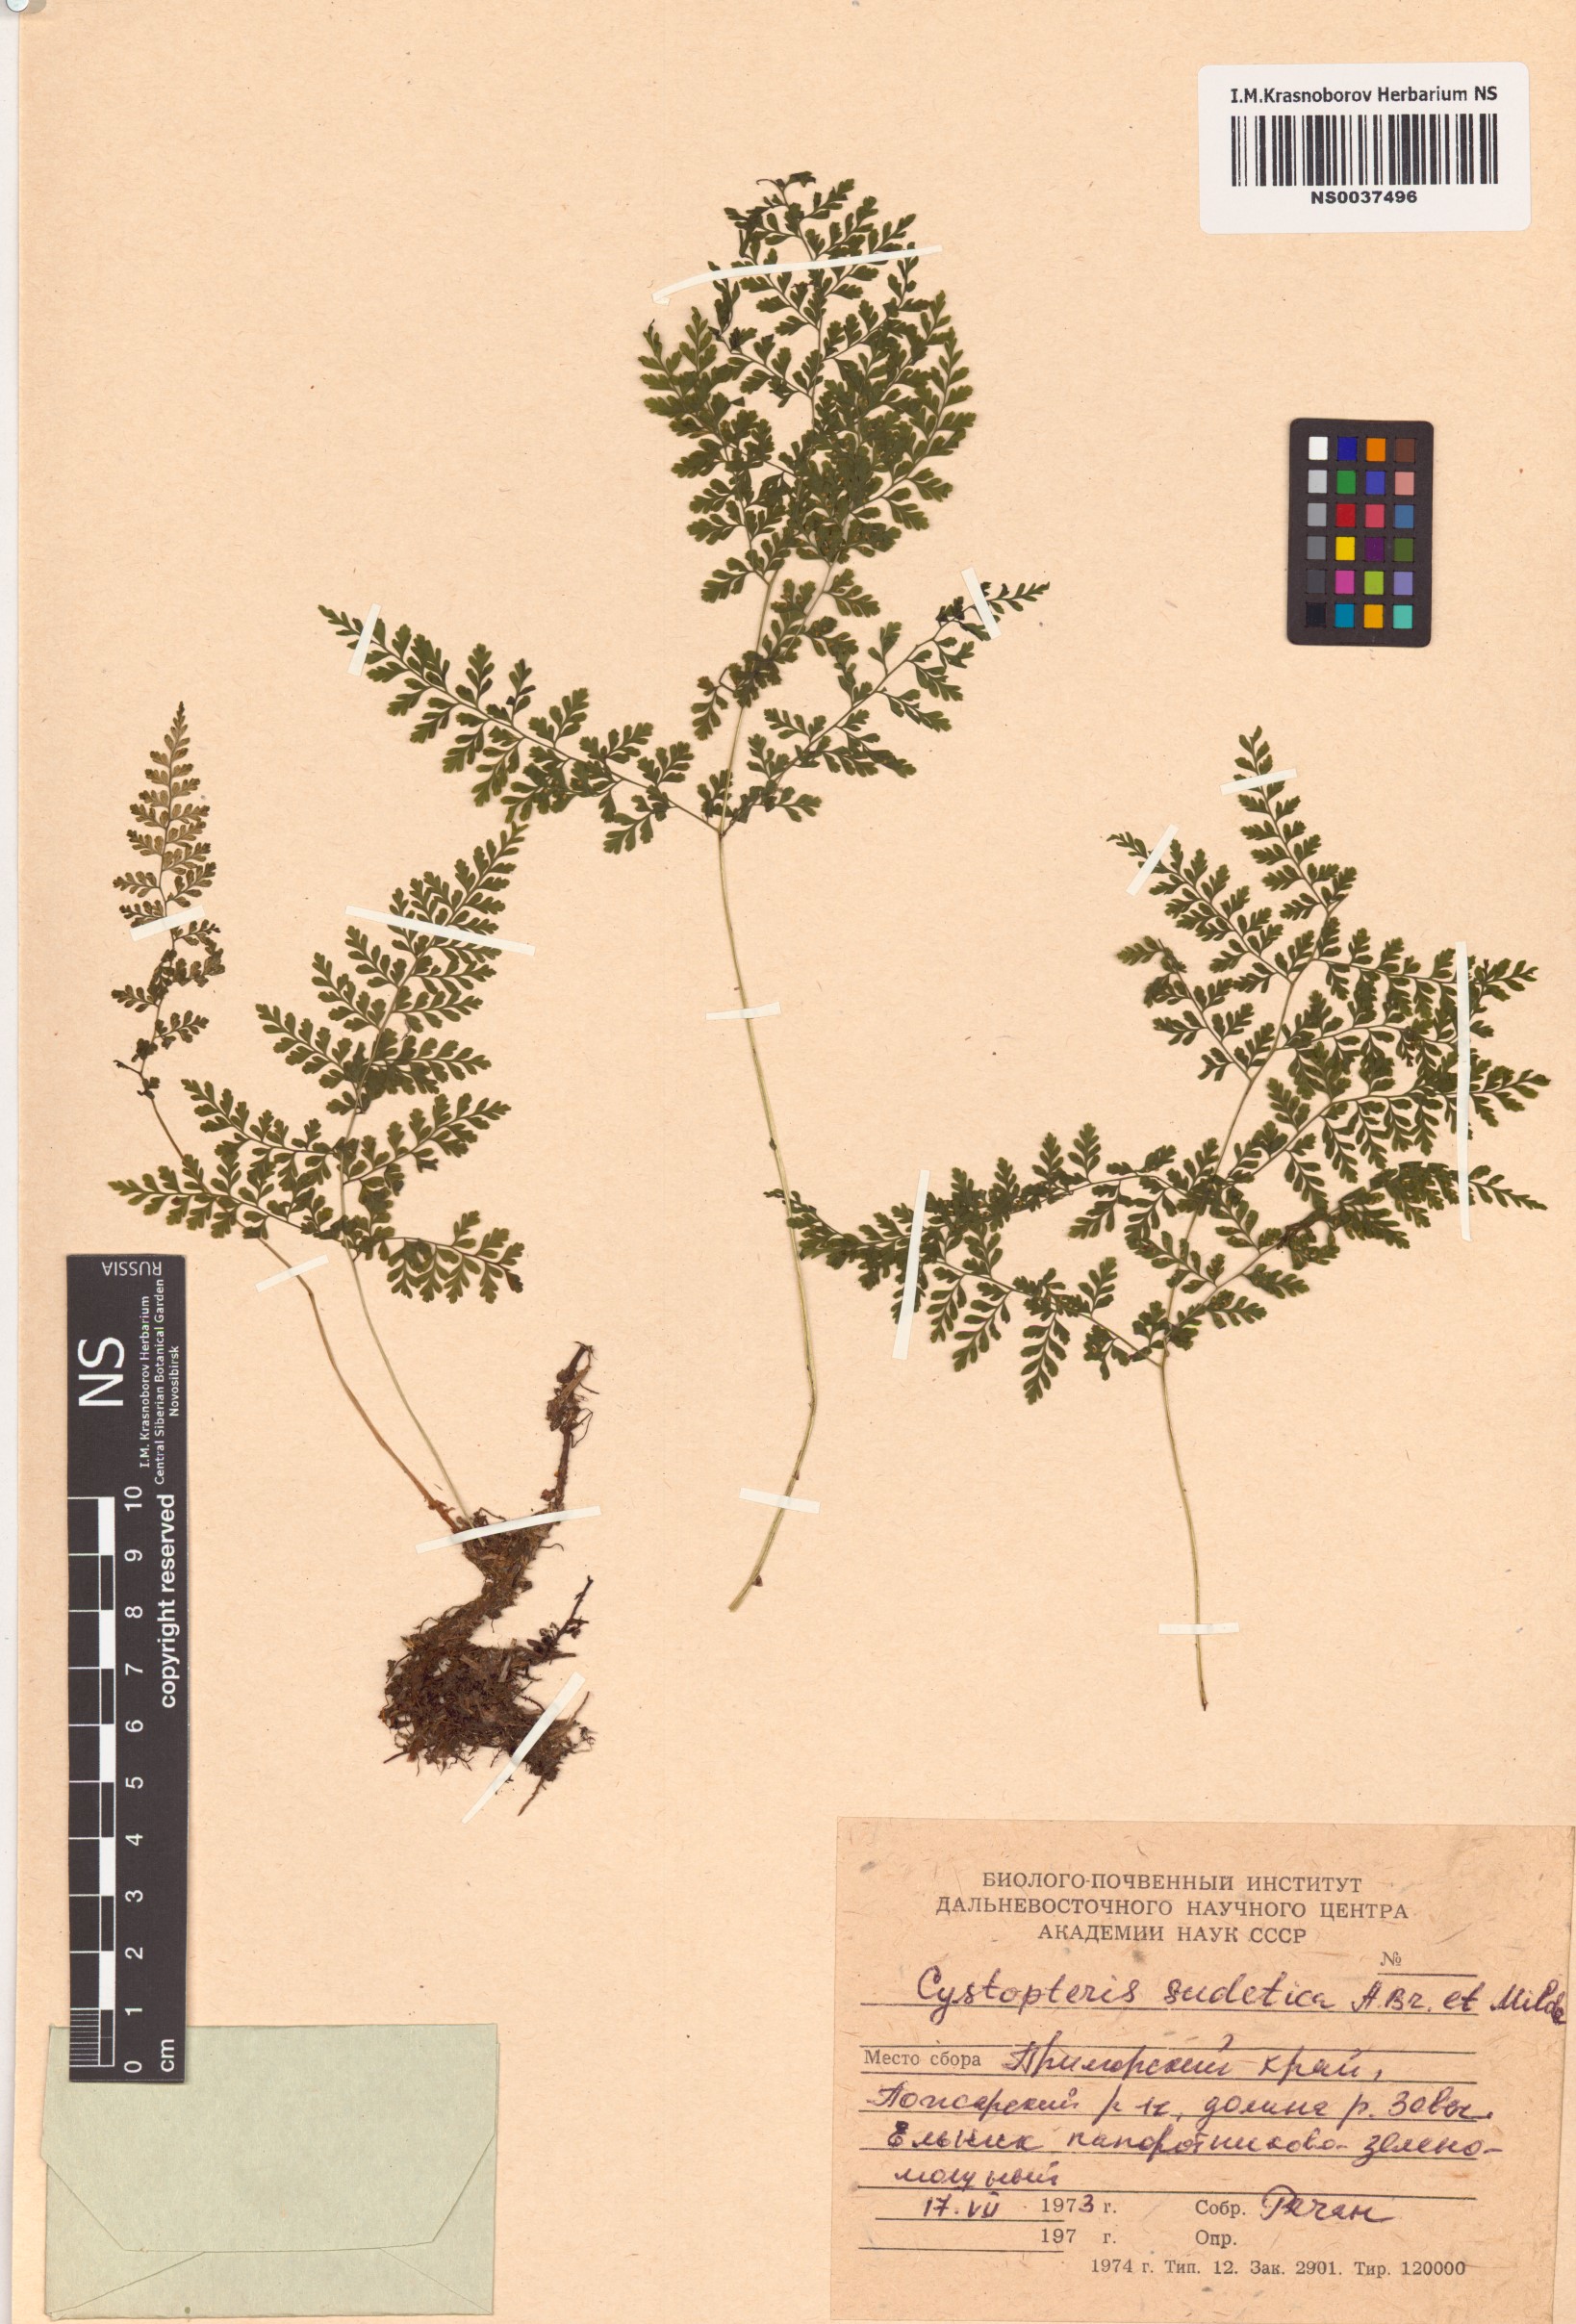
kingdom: Plantae
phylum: Tracheophyta
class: Polypodiopsida
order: Polypodiales
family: Cystopteridaceae
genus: Cystopteris
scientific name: Cystopteris sudetica
